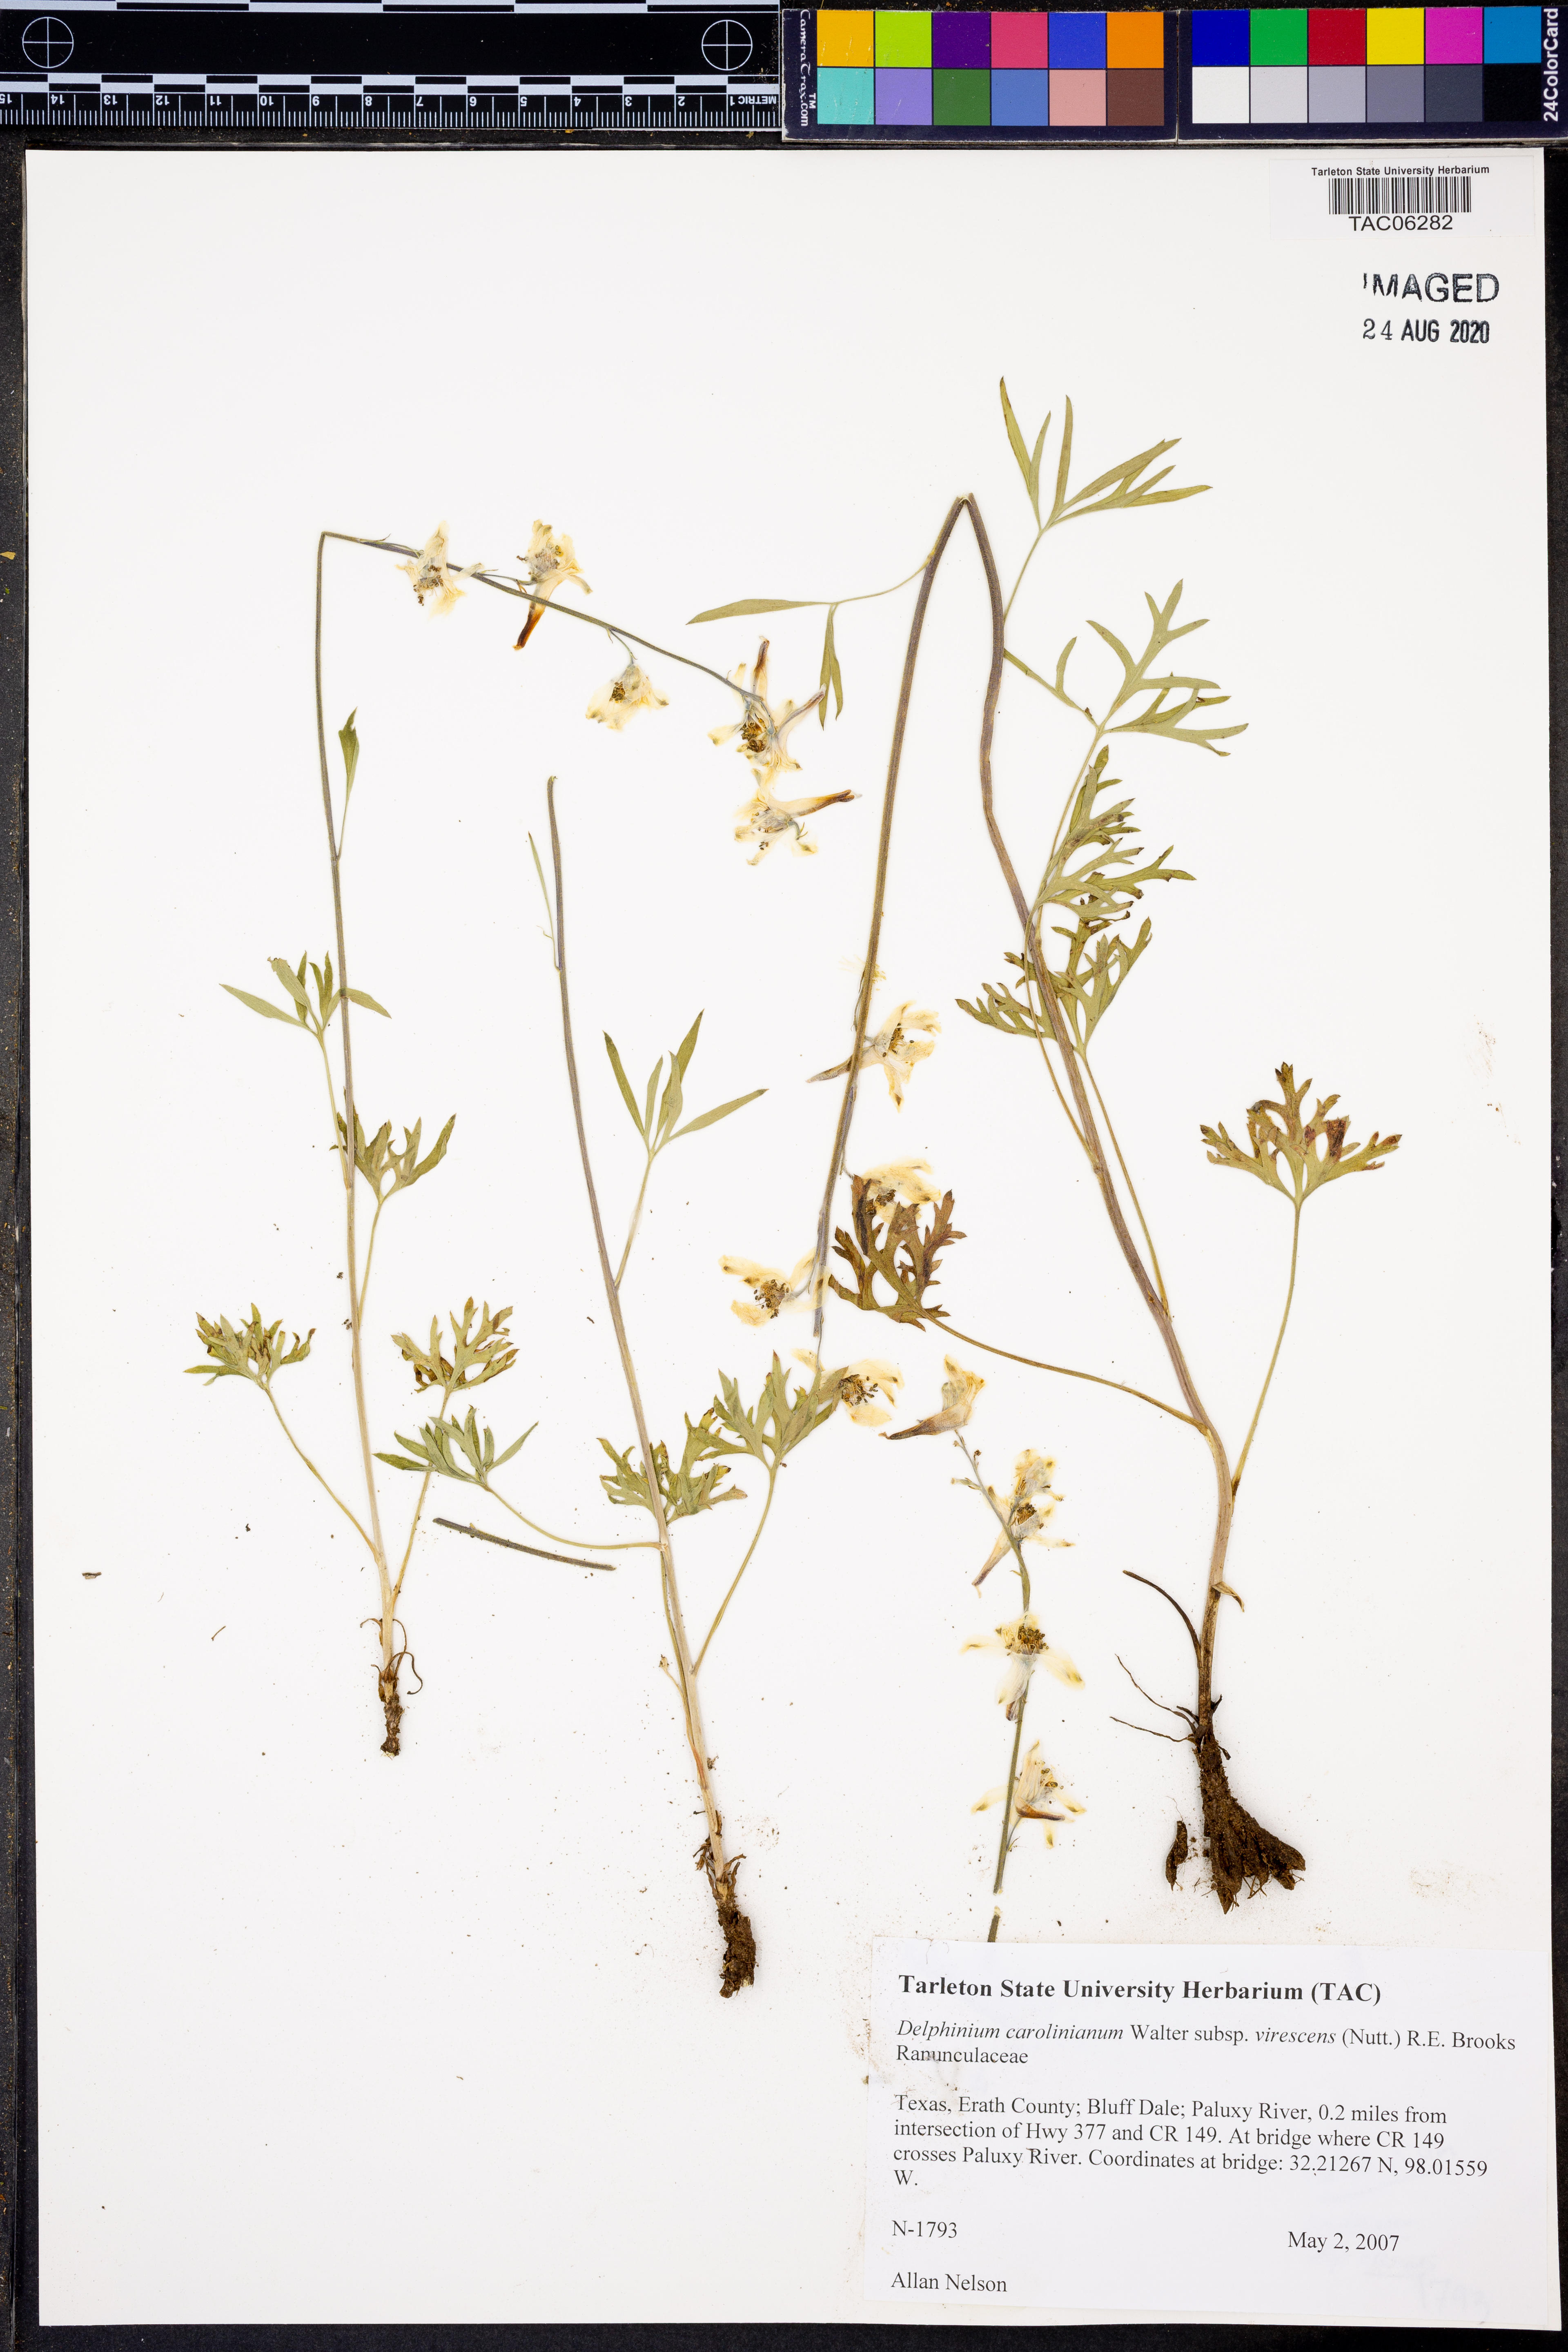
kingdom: Plantae
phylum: Tracheophyta
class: Magnoliopsida
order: Ranunculales
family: Ranunculaceae
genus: Delphinium
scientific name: Delphinium carolinianum
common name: Carolina larkspur
